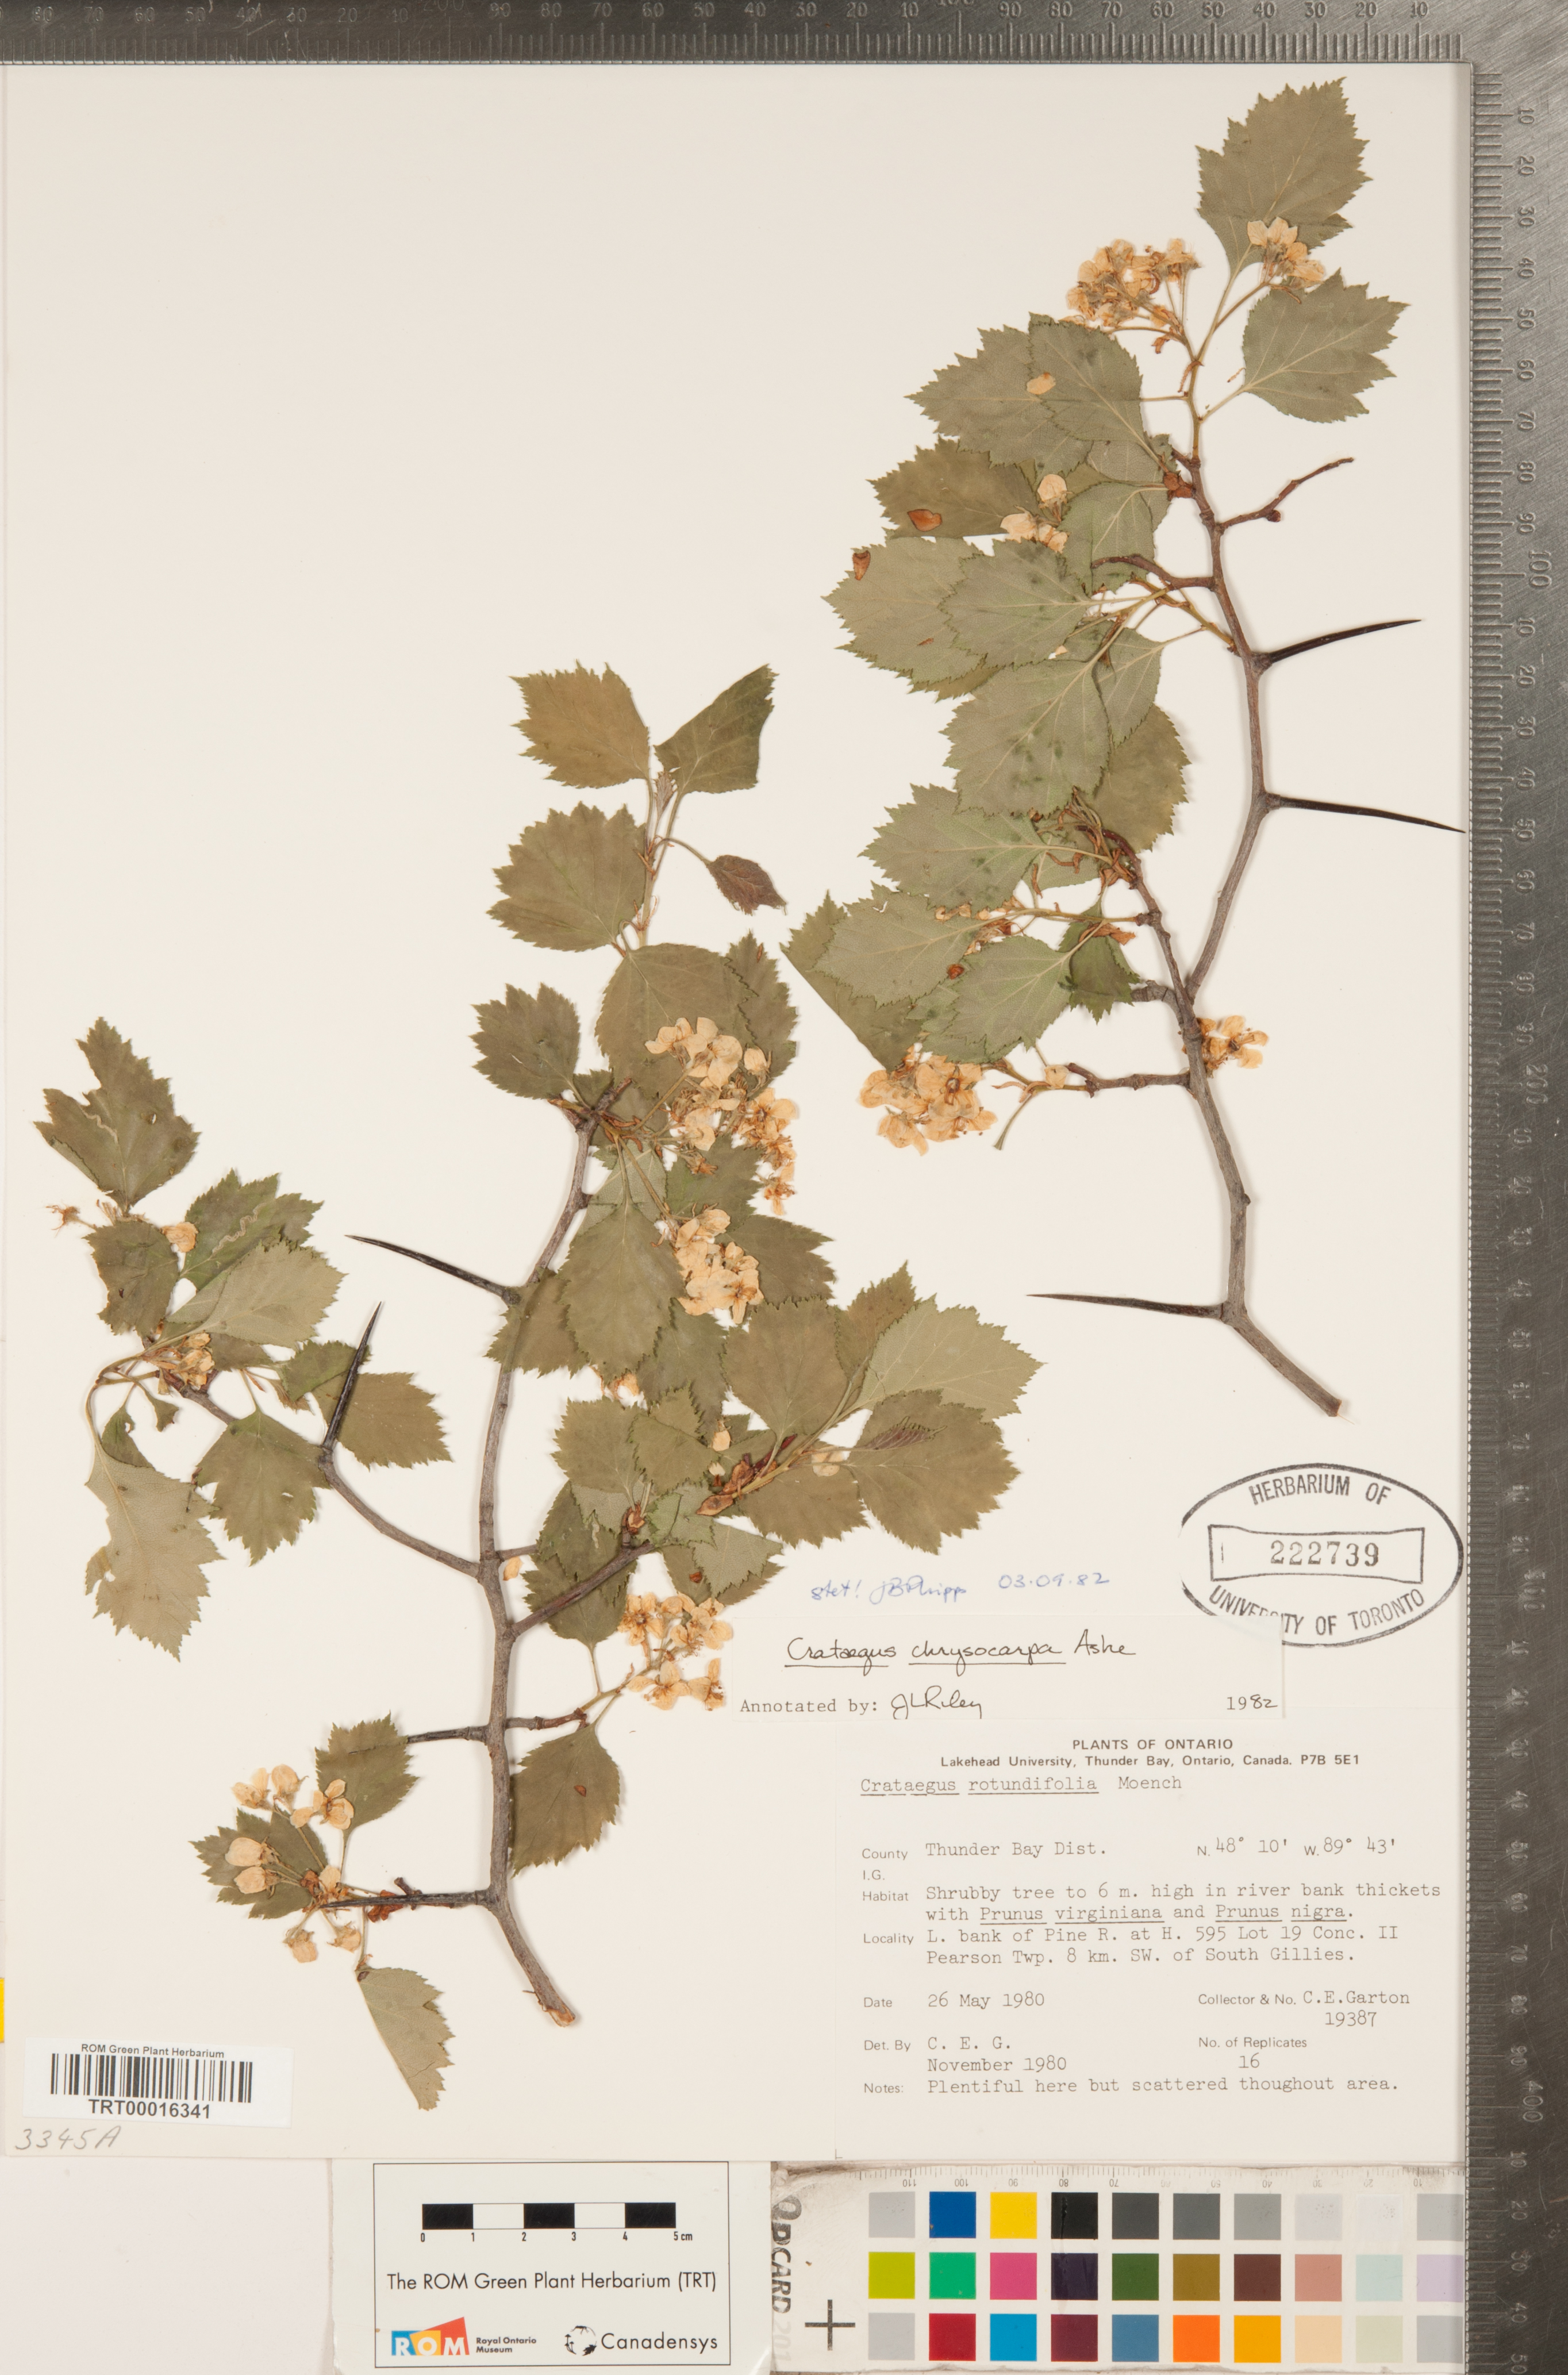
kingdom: Plantae
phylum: Tracheophyta
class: Magnoliopsida
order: Rosales
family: Rosaceae
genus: Crataegus
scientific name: Crataegus chrysocarpa
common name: Fire-berry hawthorn
